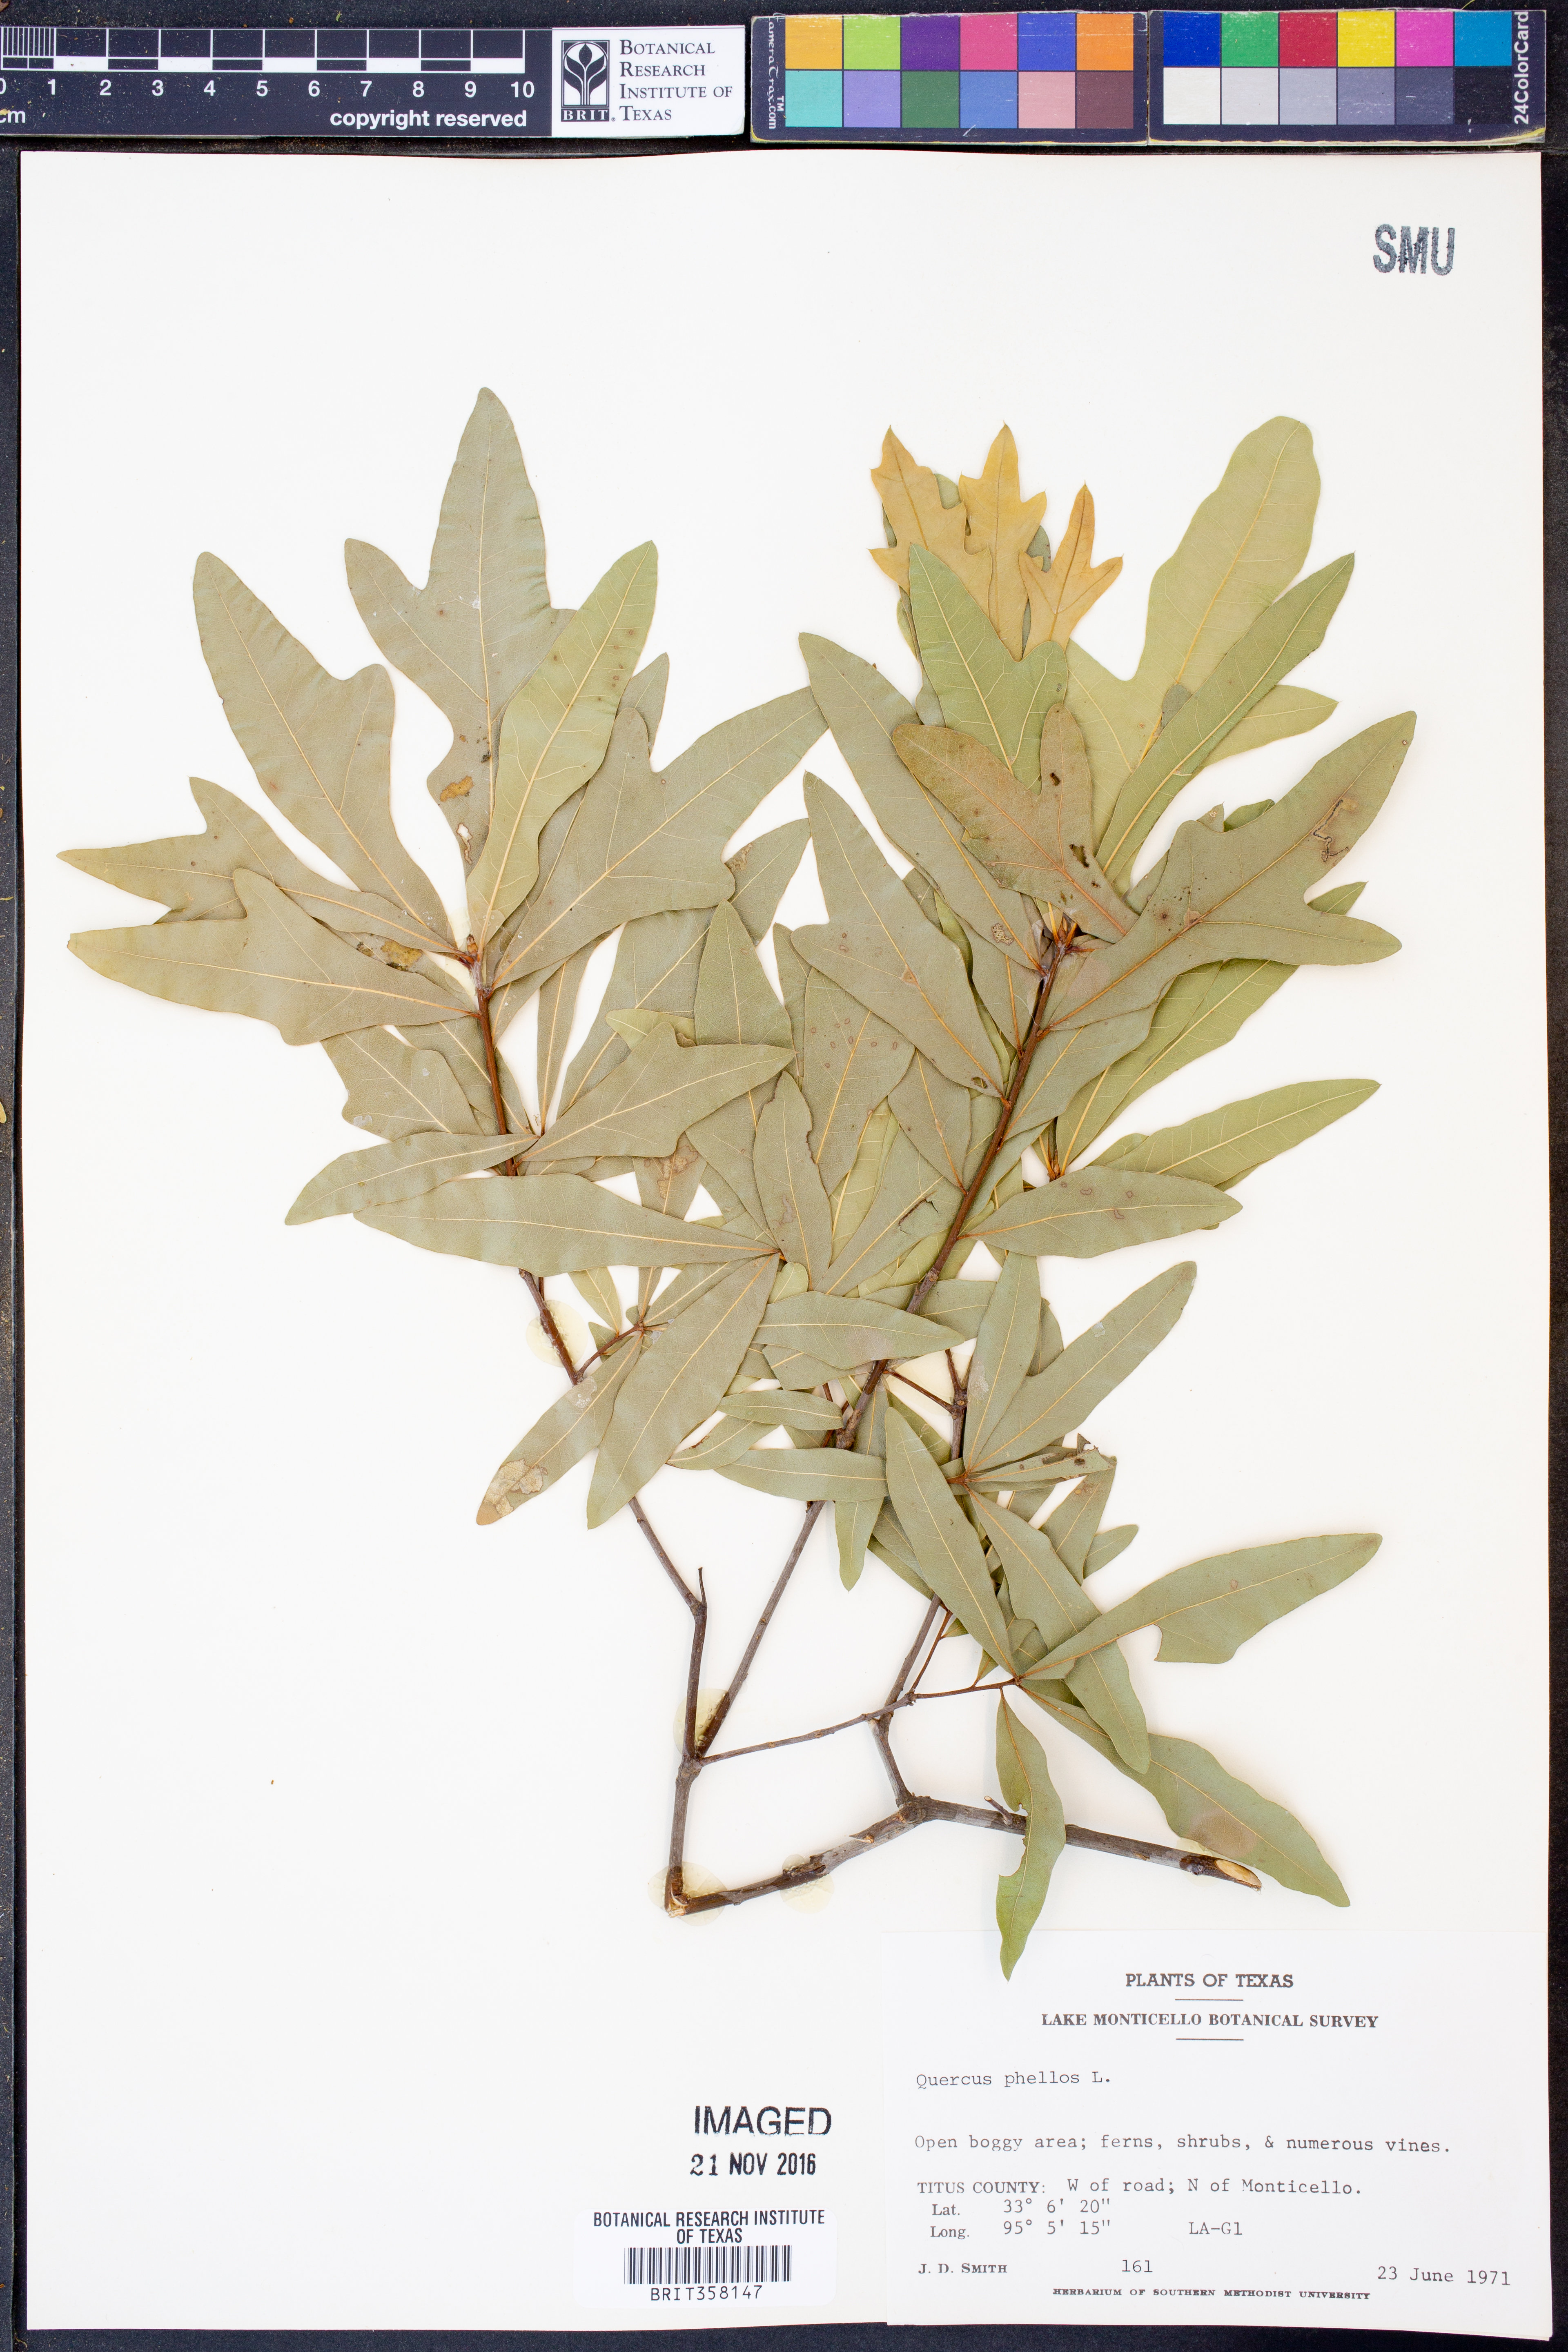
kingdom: Plantae
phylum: Tracheophyta
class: Magnoliopsida
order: Fagales
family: Fagaceae
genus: Quercus
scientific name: Quercus phellos
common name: Willow oak
